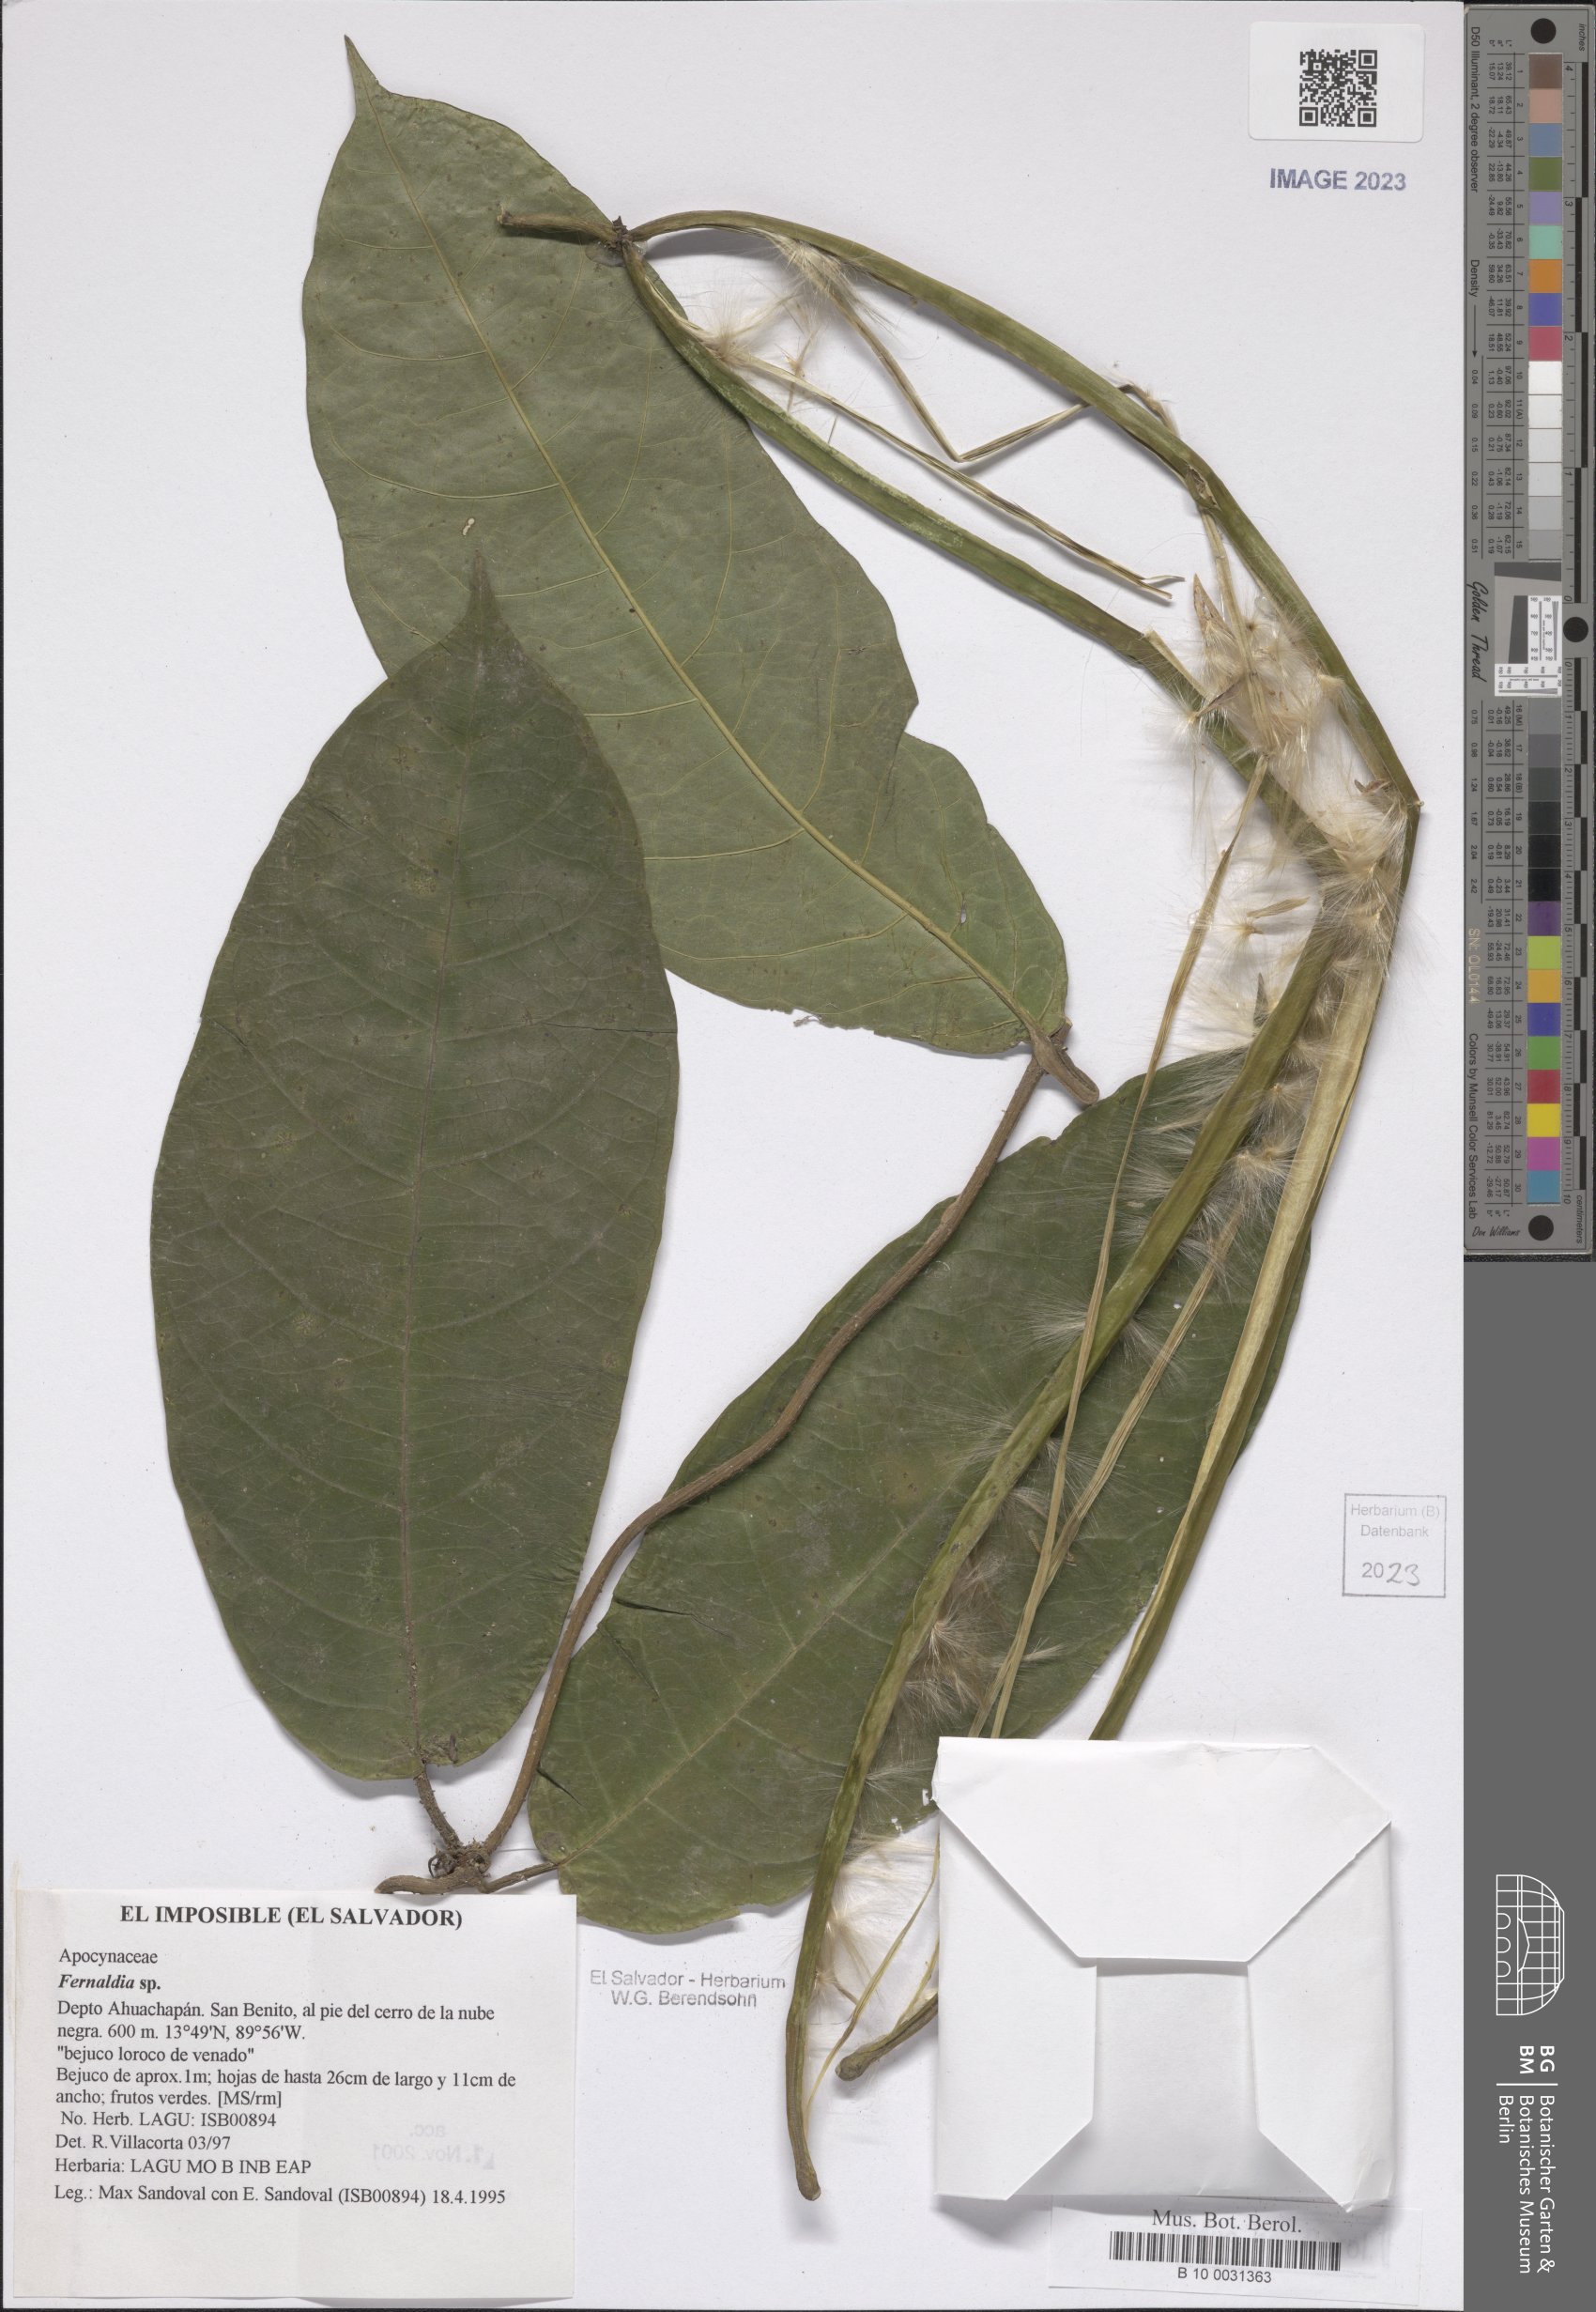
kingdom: Plantae
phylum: Tracheophyta
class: Magnoliopsida
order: Gentianales
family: Apocynaceae
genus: Echites
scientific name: Echites
